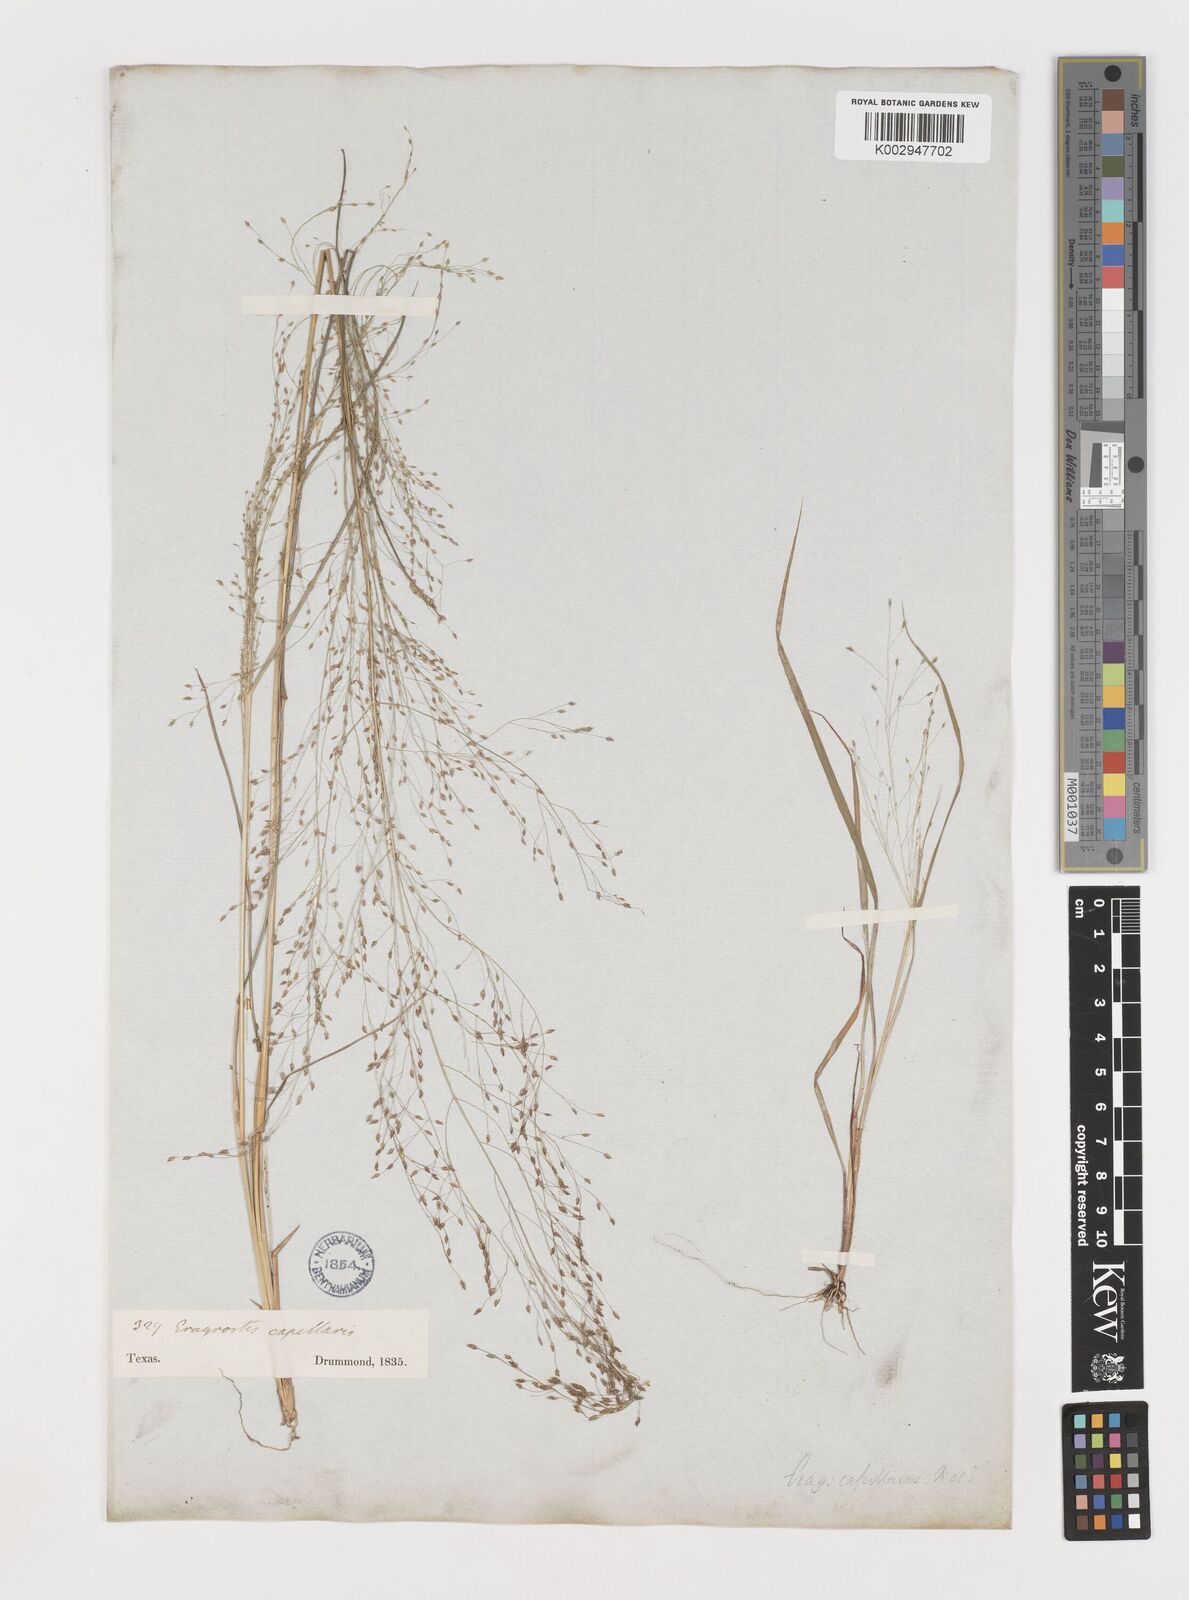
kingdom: Plantae
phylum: Tracheophyta
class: Liliopsida
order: Poales
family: Poaceae
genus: Eragrostis
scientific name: Eragrostis capillaris
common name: Hair-like lovegrass
